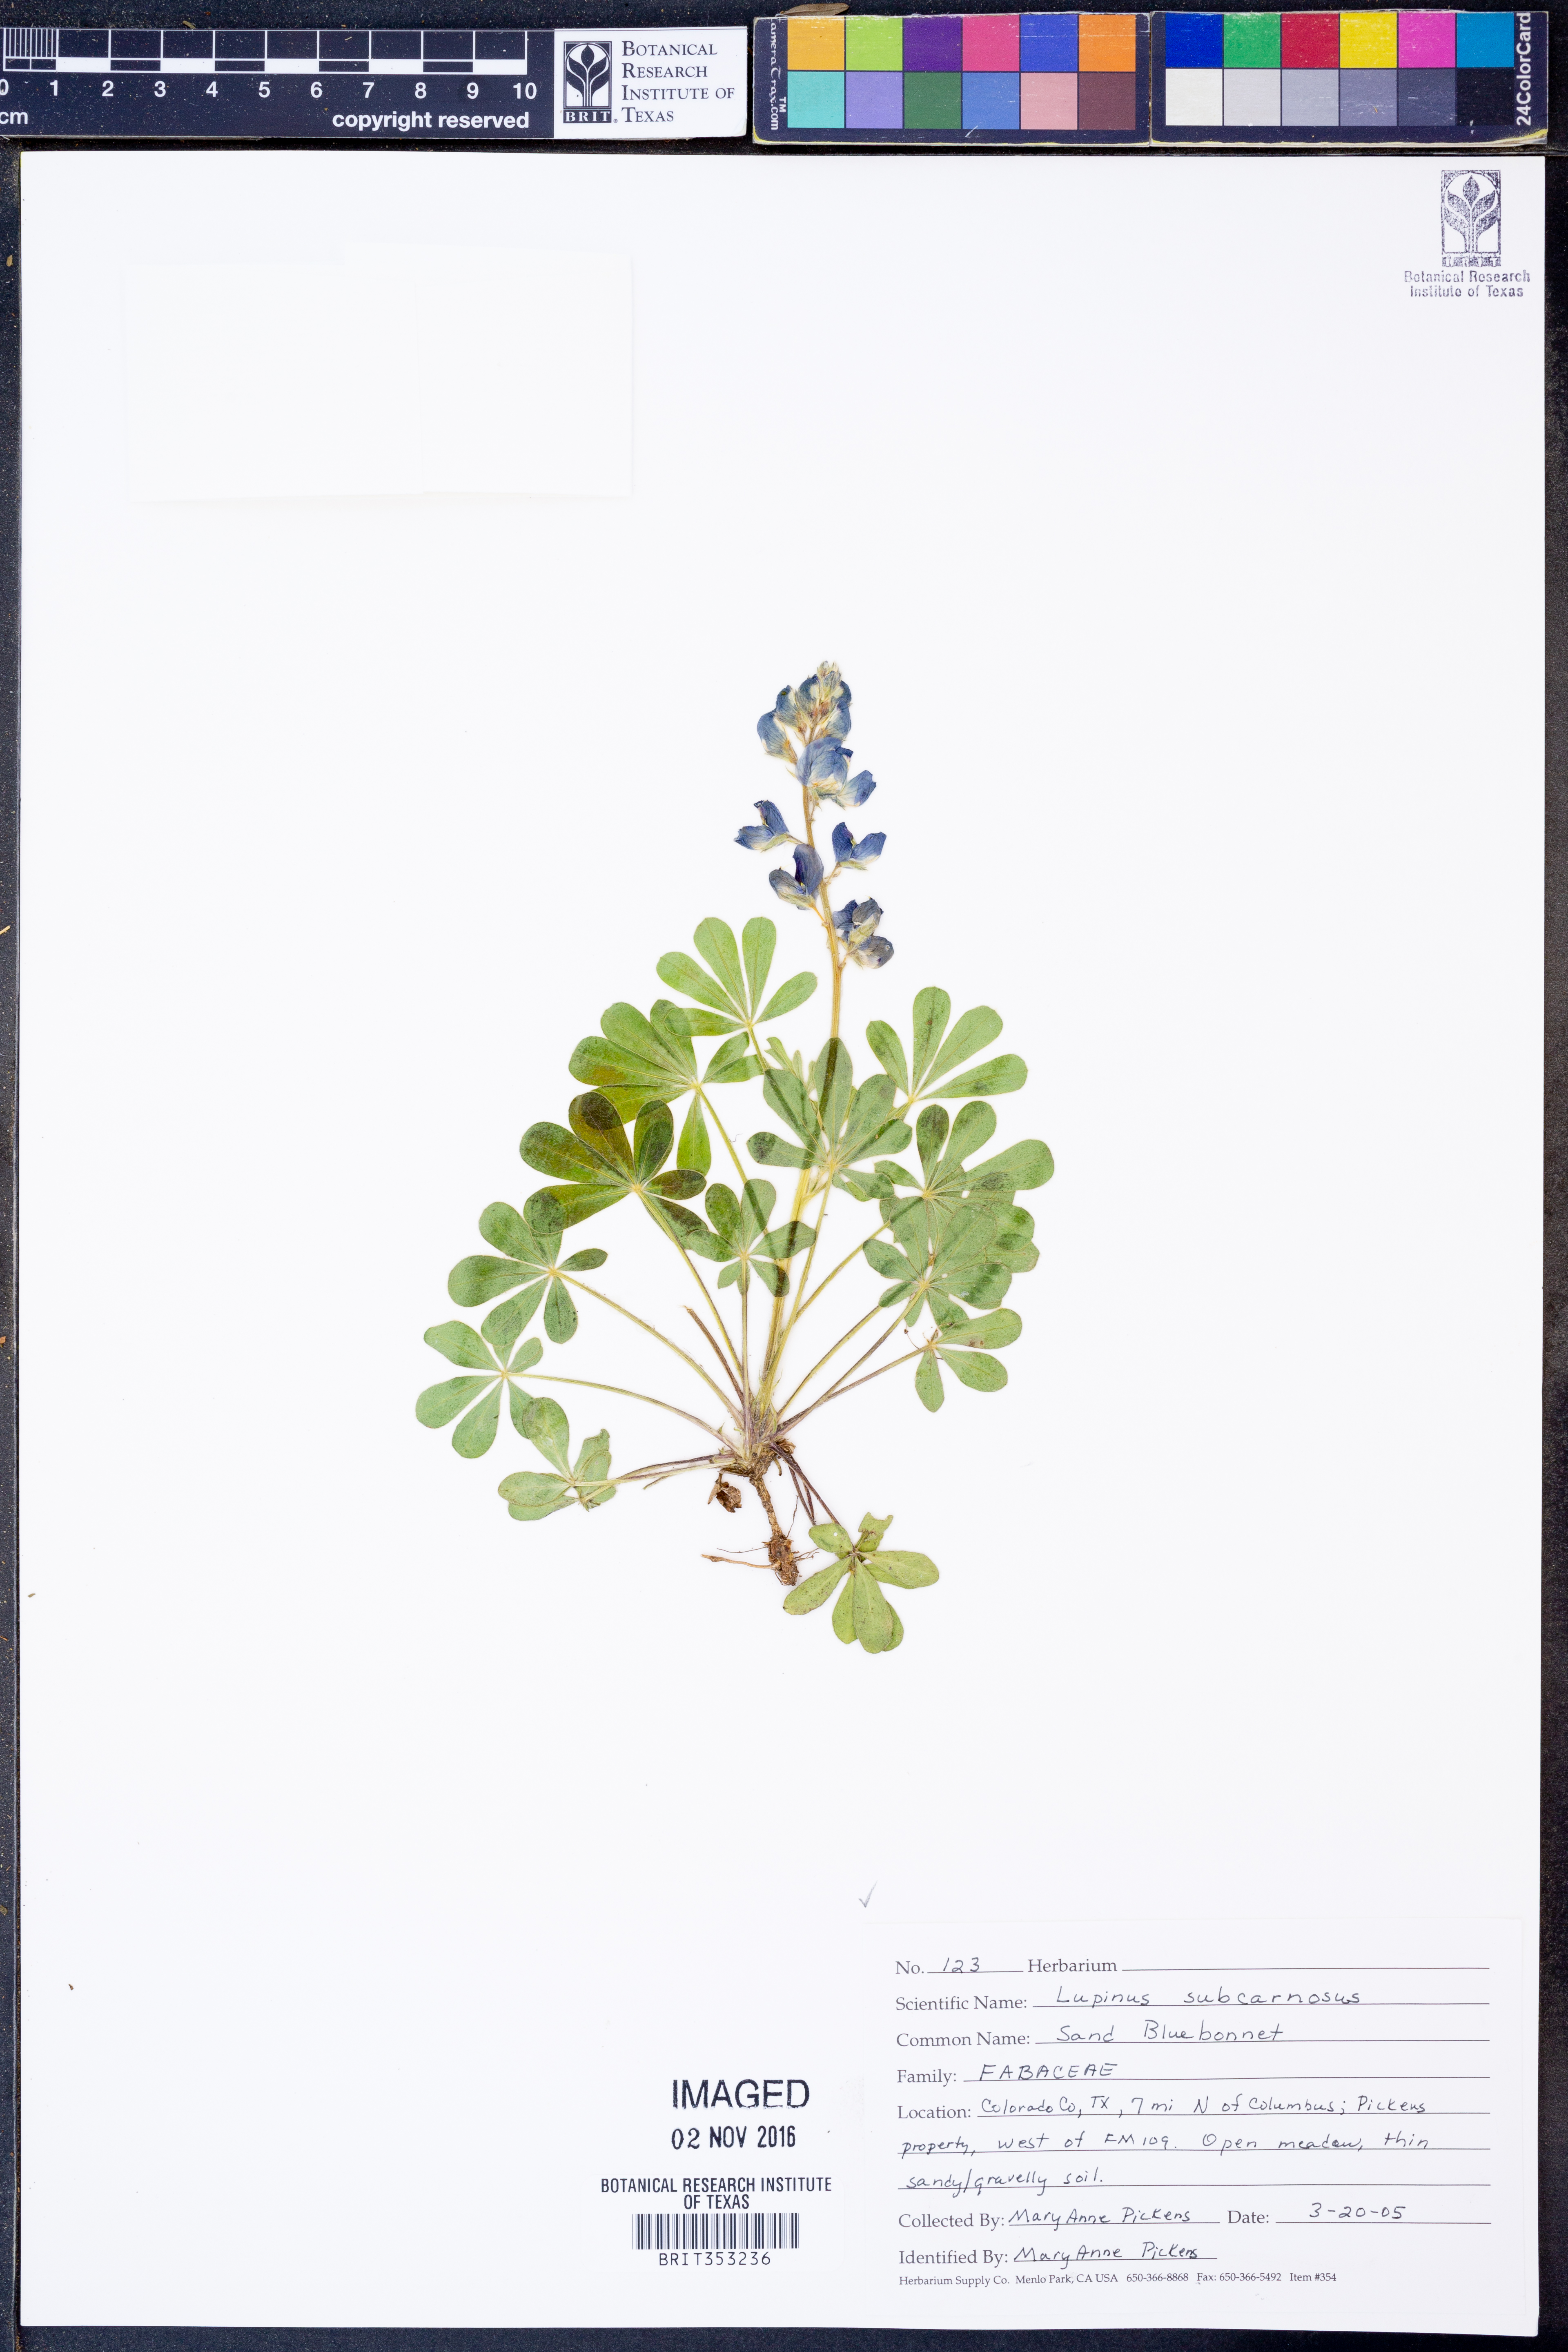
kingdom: Plantae
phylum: Tracheophyta
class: Magnoliopsida
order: Fabales
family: Fabaceae
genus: Lupinus
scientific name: Lupinus subcarnosus
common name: Texas bluebonnet
